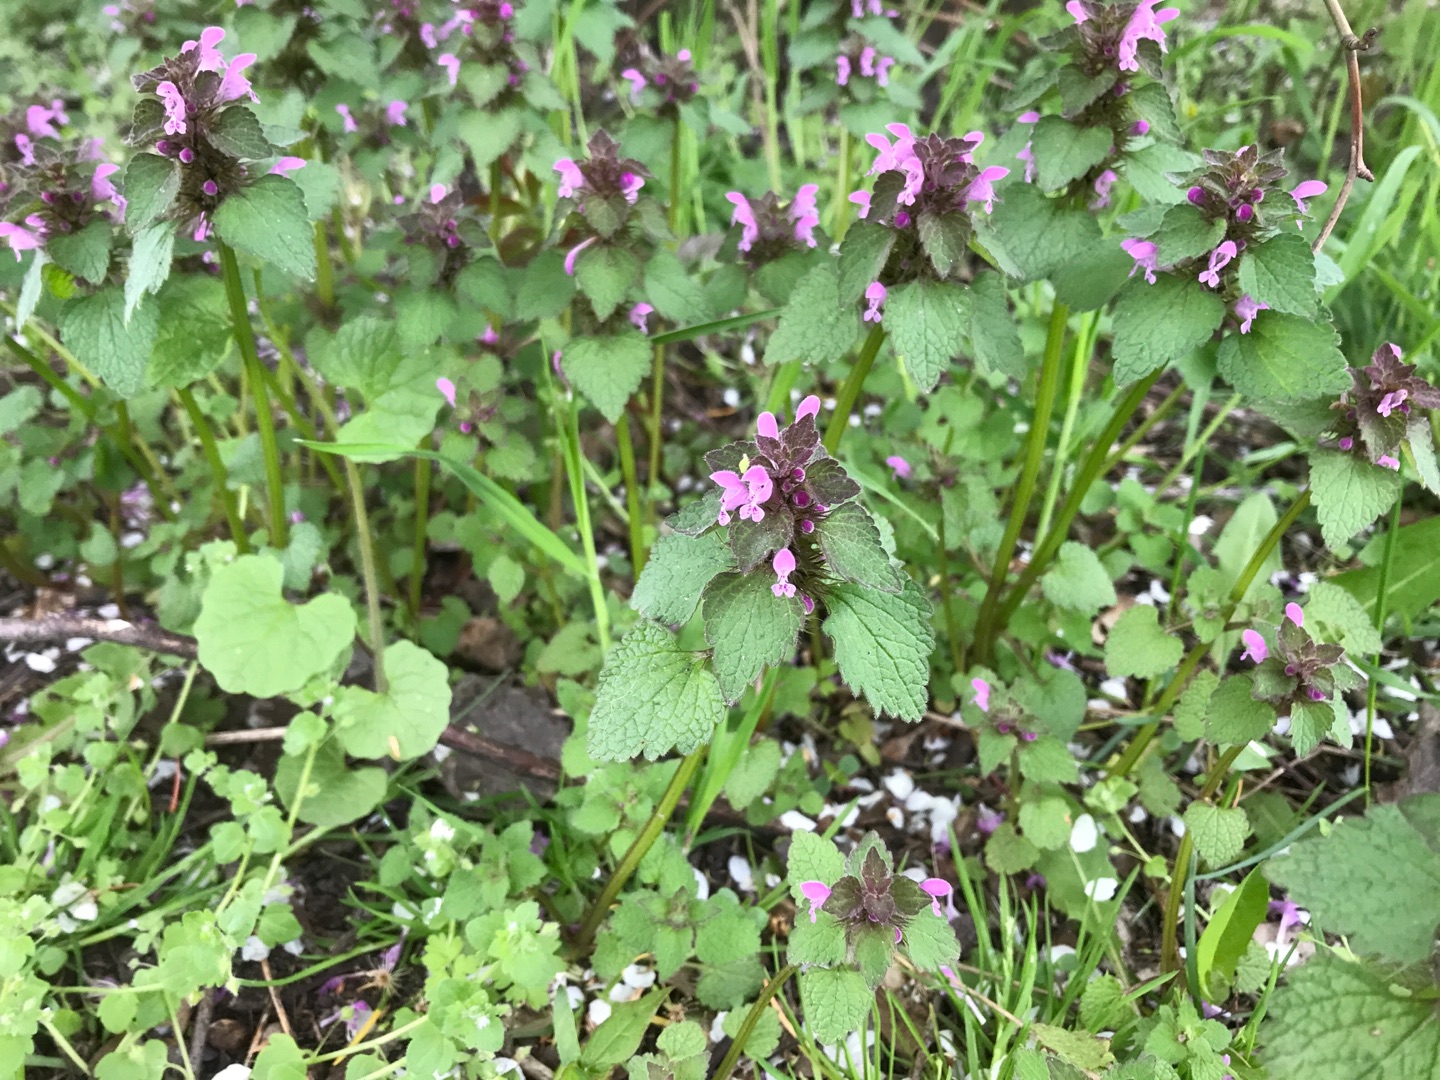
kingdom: Plantae
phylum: Tracheophyta
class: Magnoliopsida
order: Lamiales
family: Lamiaceae
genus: Lamium
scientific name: Lamium purpureum
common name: Rød tvetand
